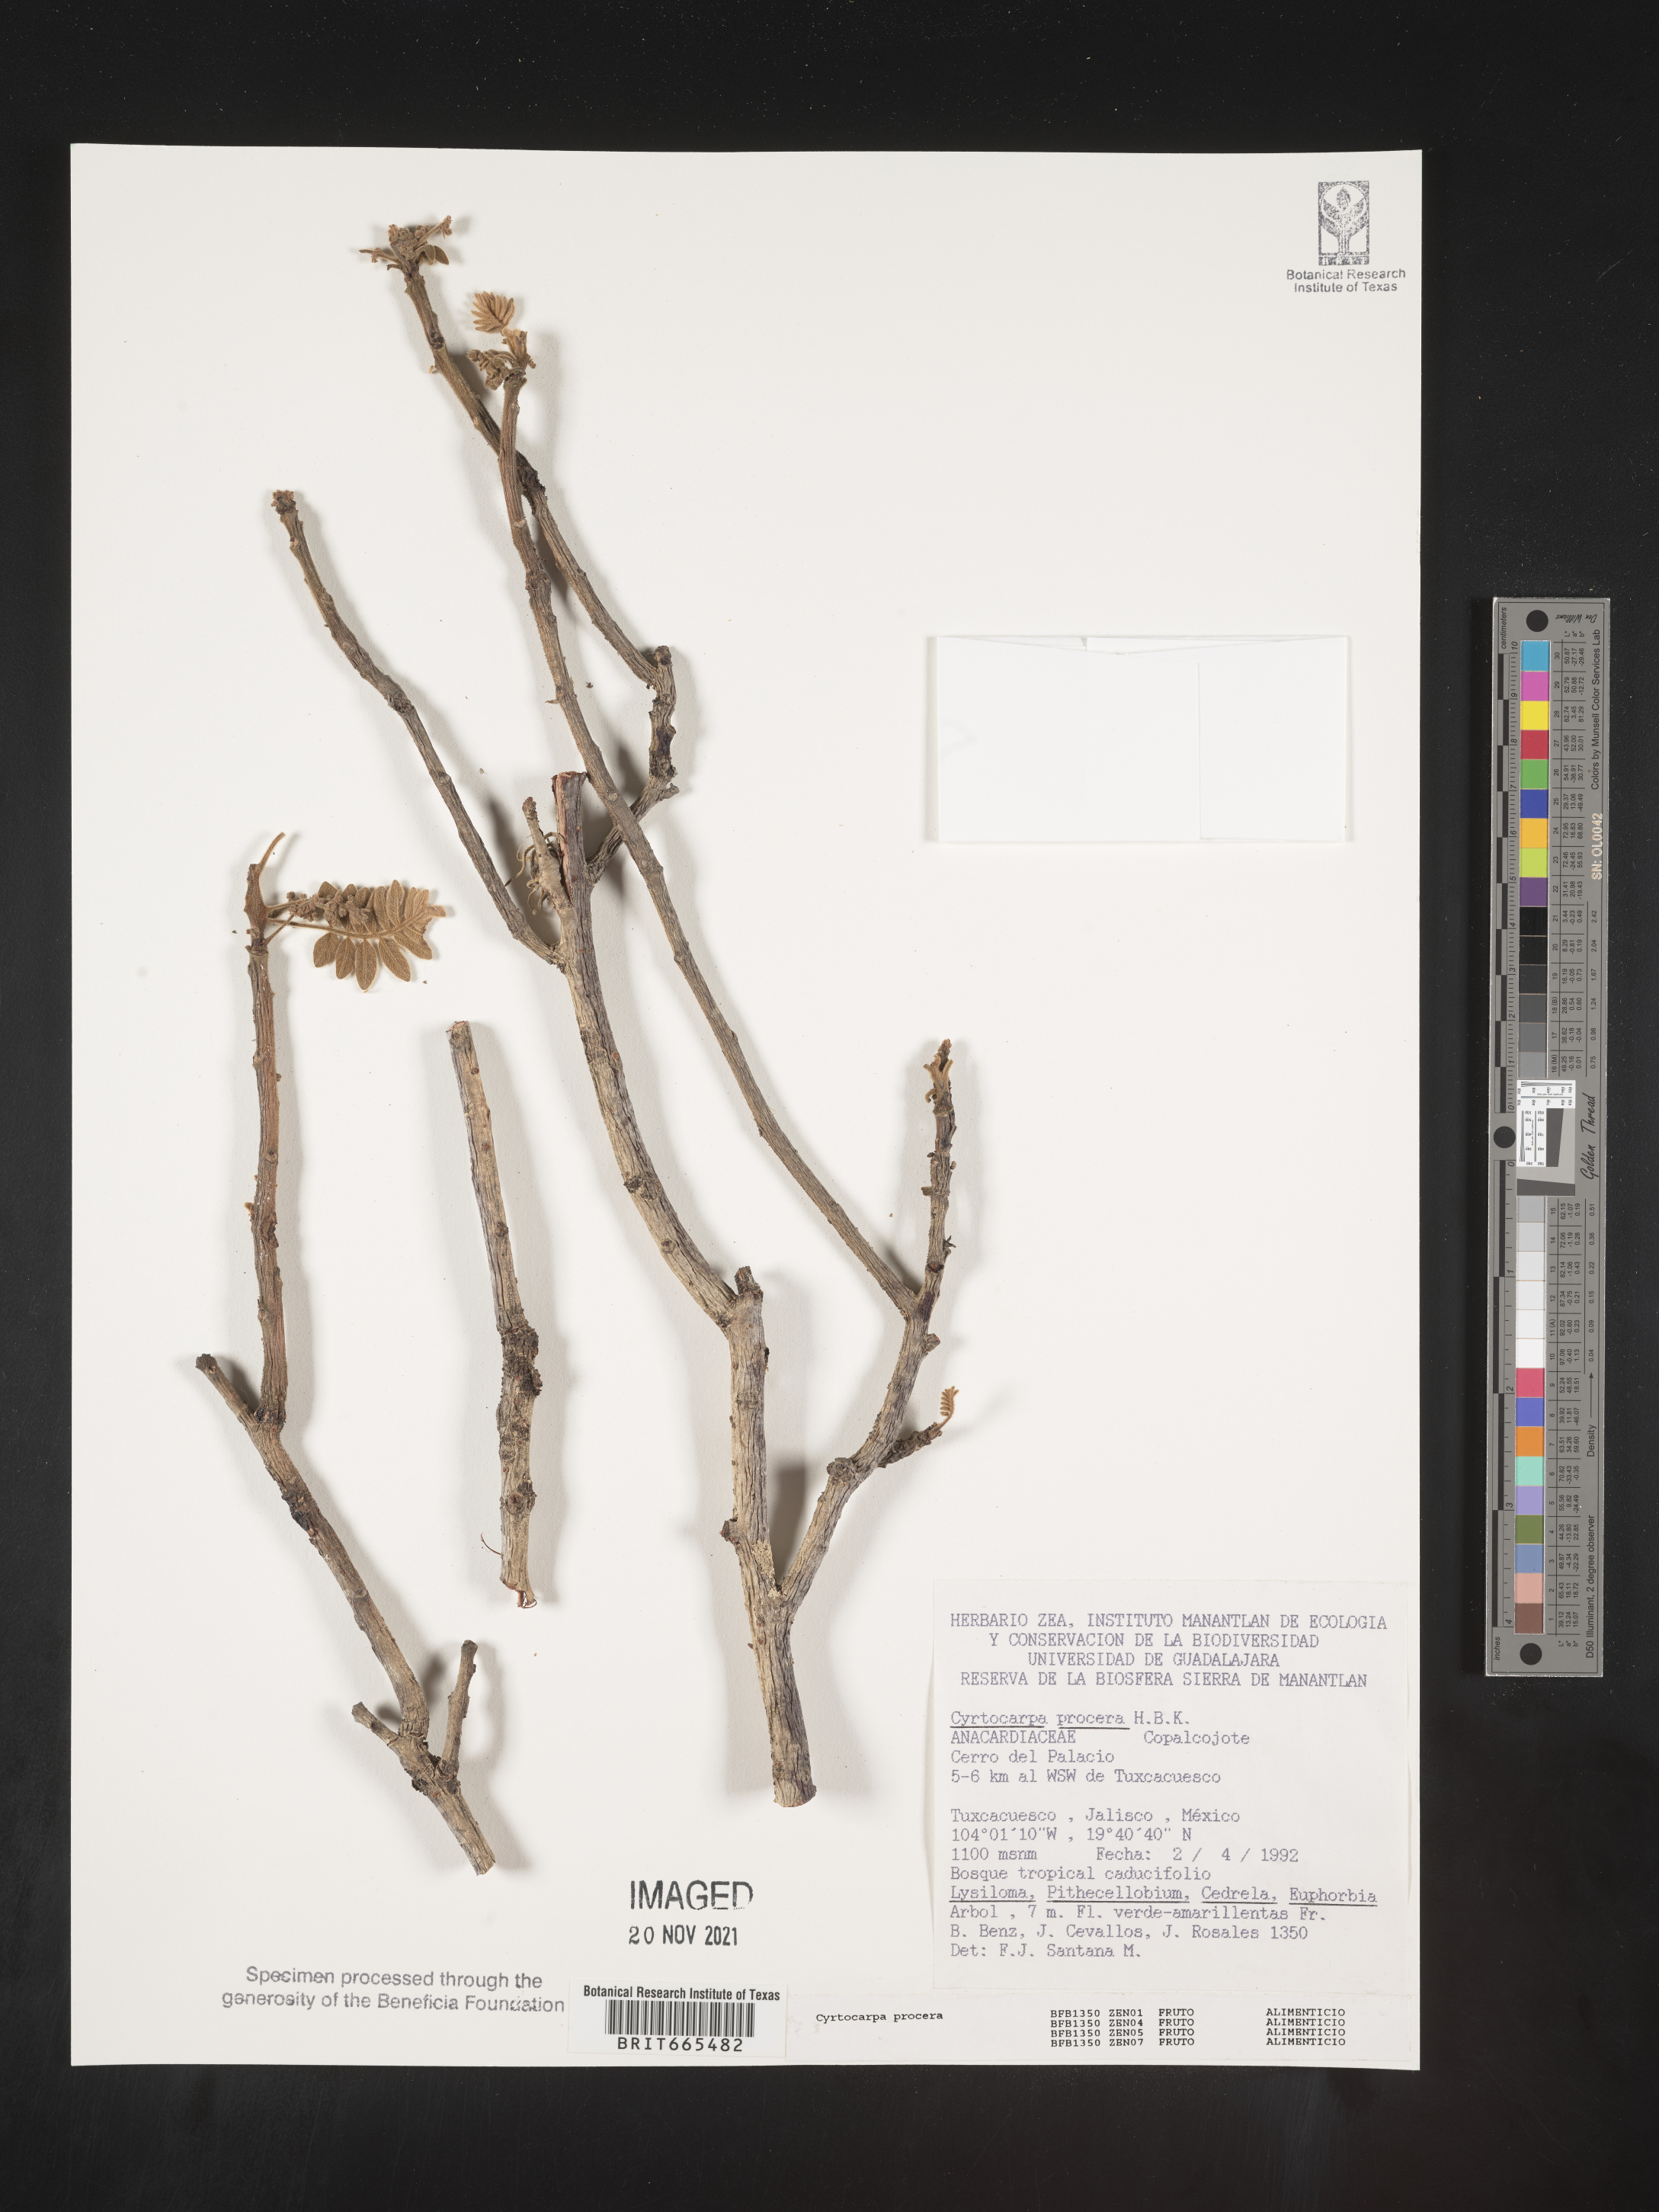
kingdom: Plantae
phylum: Tracheophyta
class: Magnoliopsida
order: Sapindales
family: Anacardiaceae
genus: Cyrtocarpa
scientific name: Cyrtocarpa
